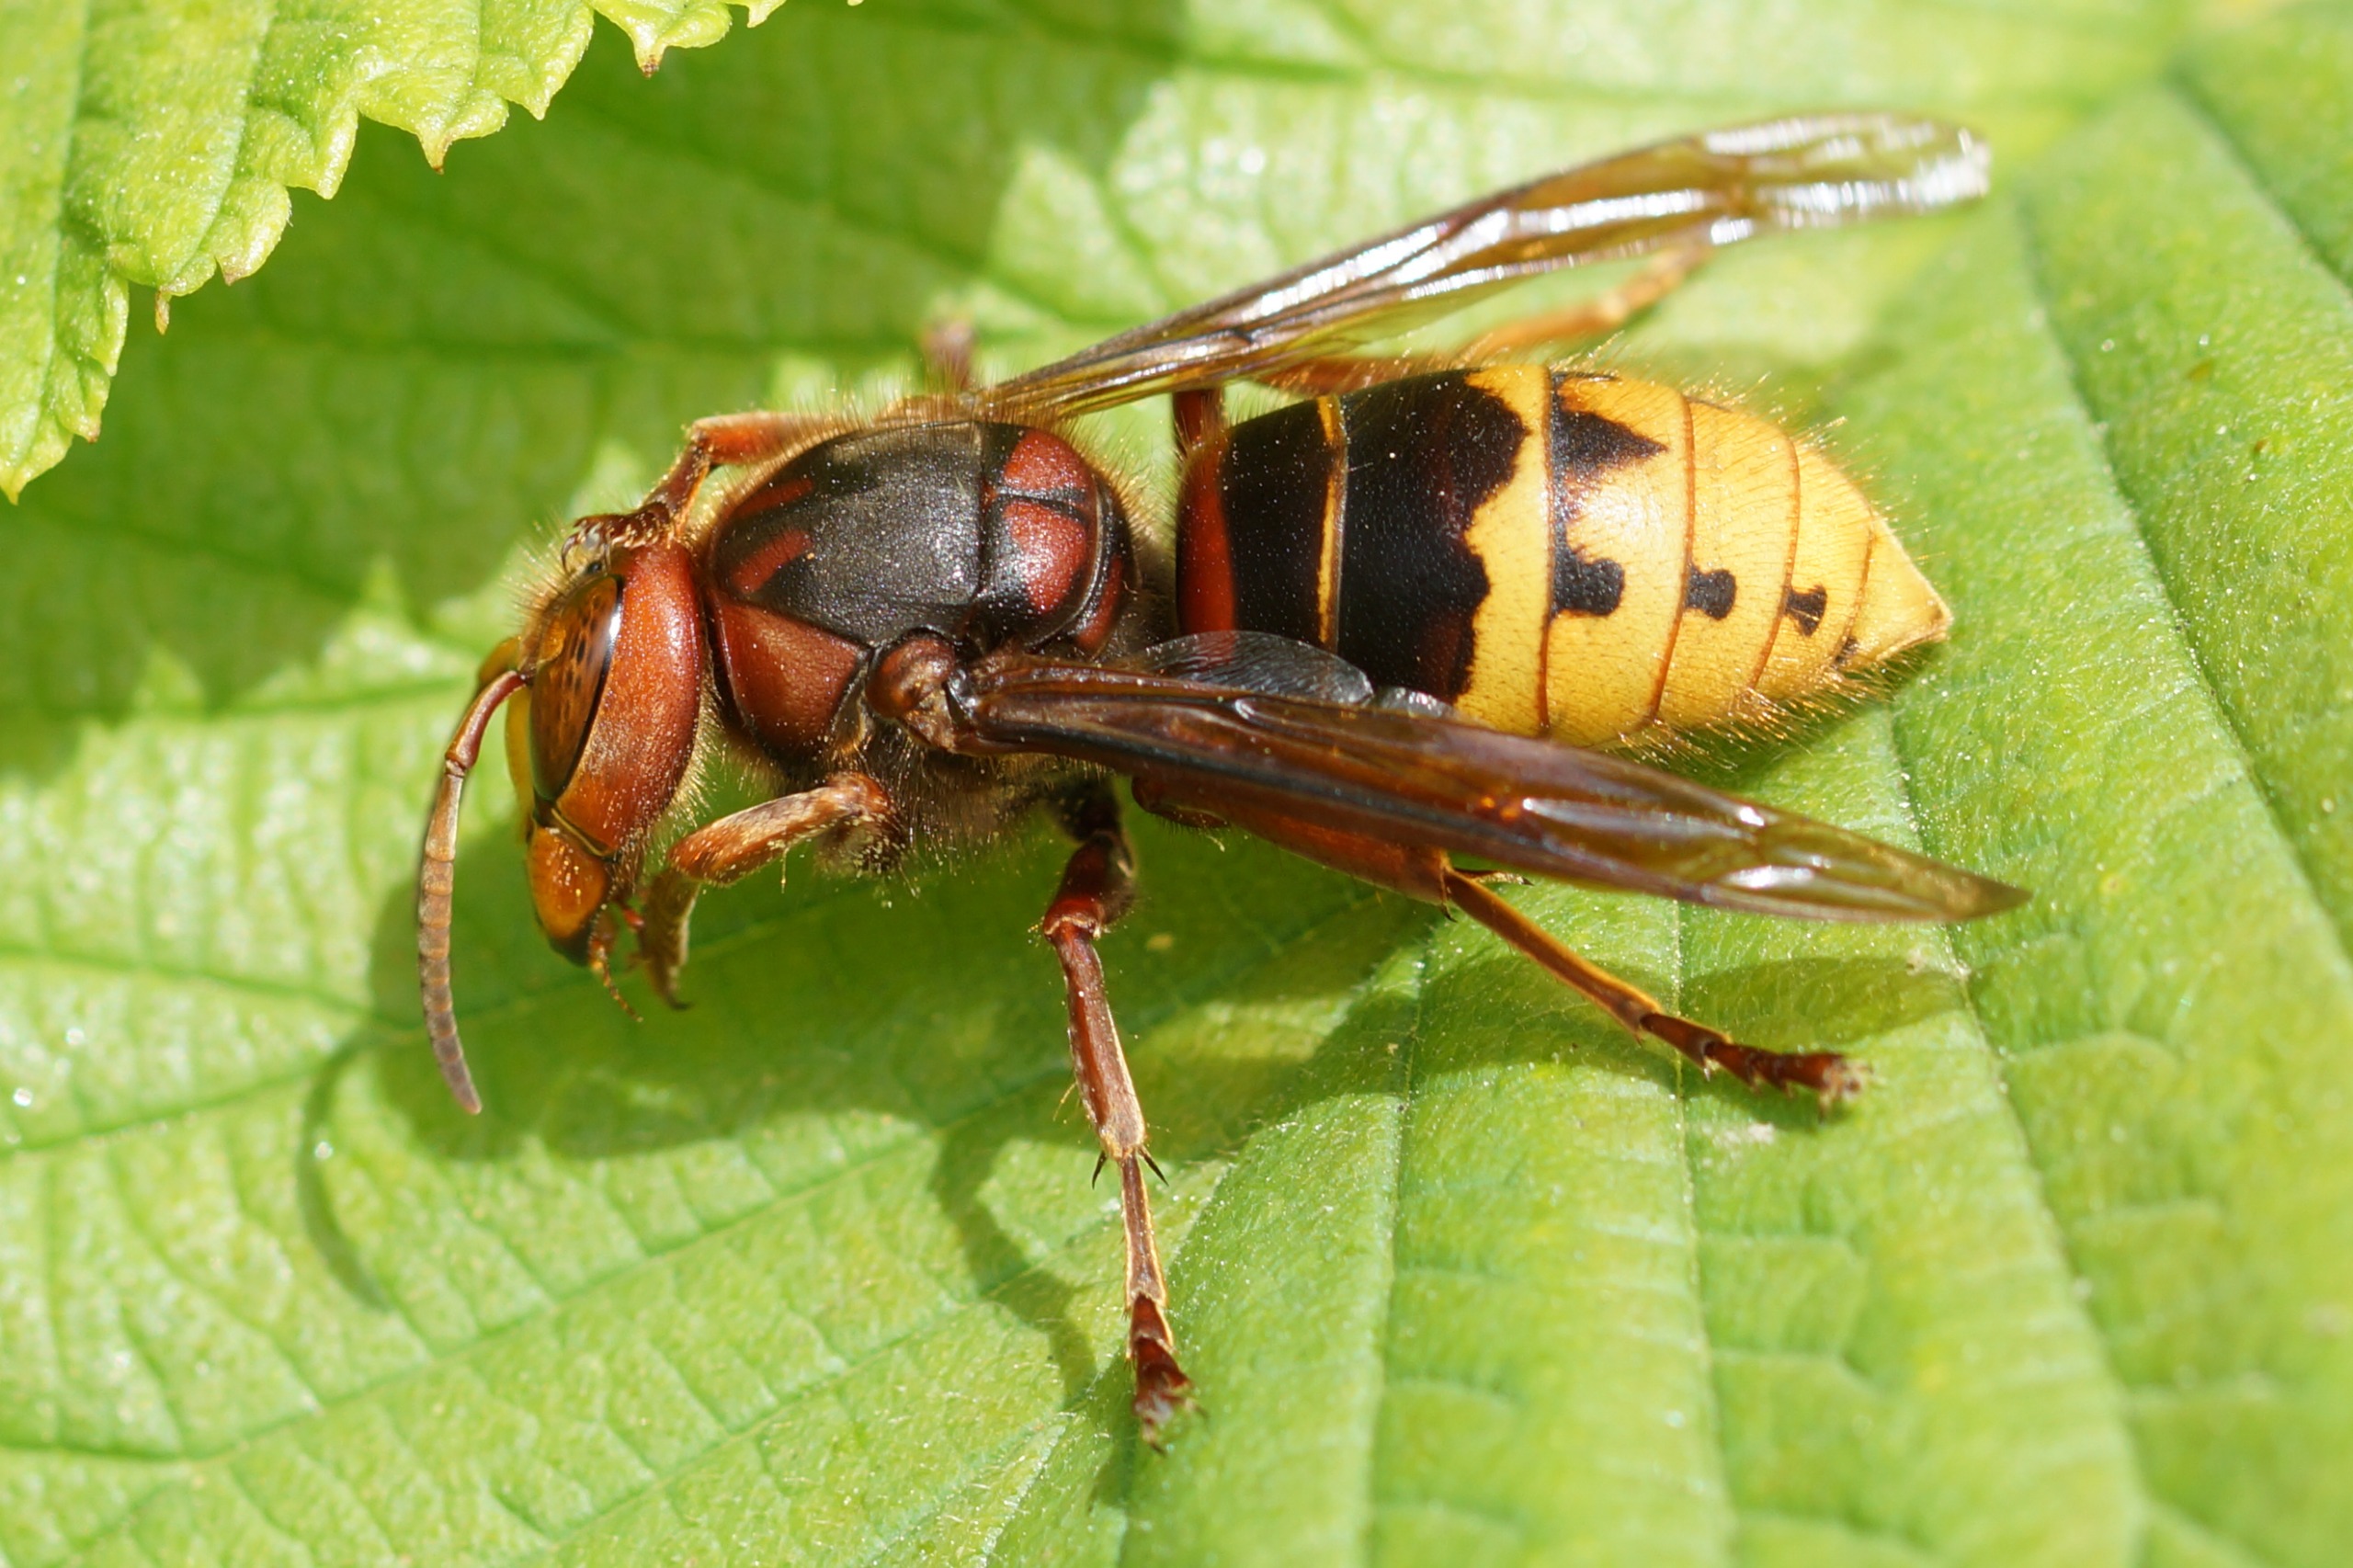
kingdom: Animalia
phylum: Arthropoda
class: Insecta
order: Hymenoptera
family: Vespidae
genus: Vespa
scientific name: Vespa crabro
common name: Stor gedehams
